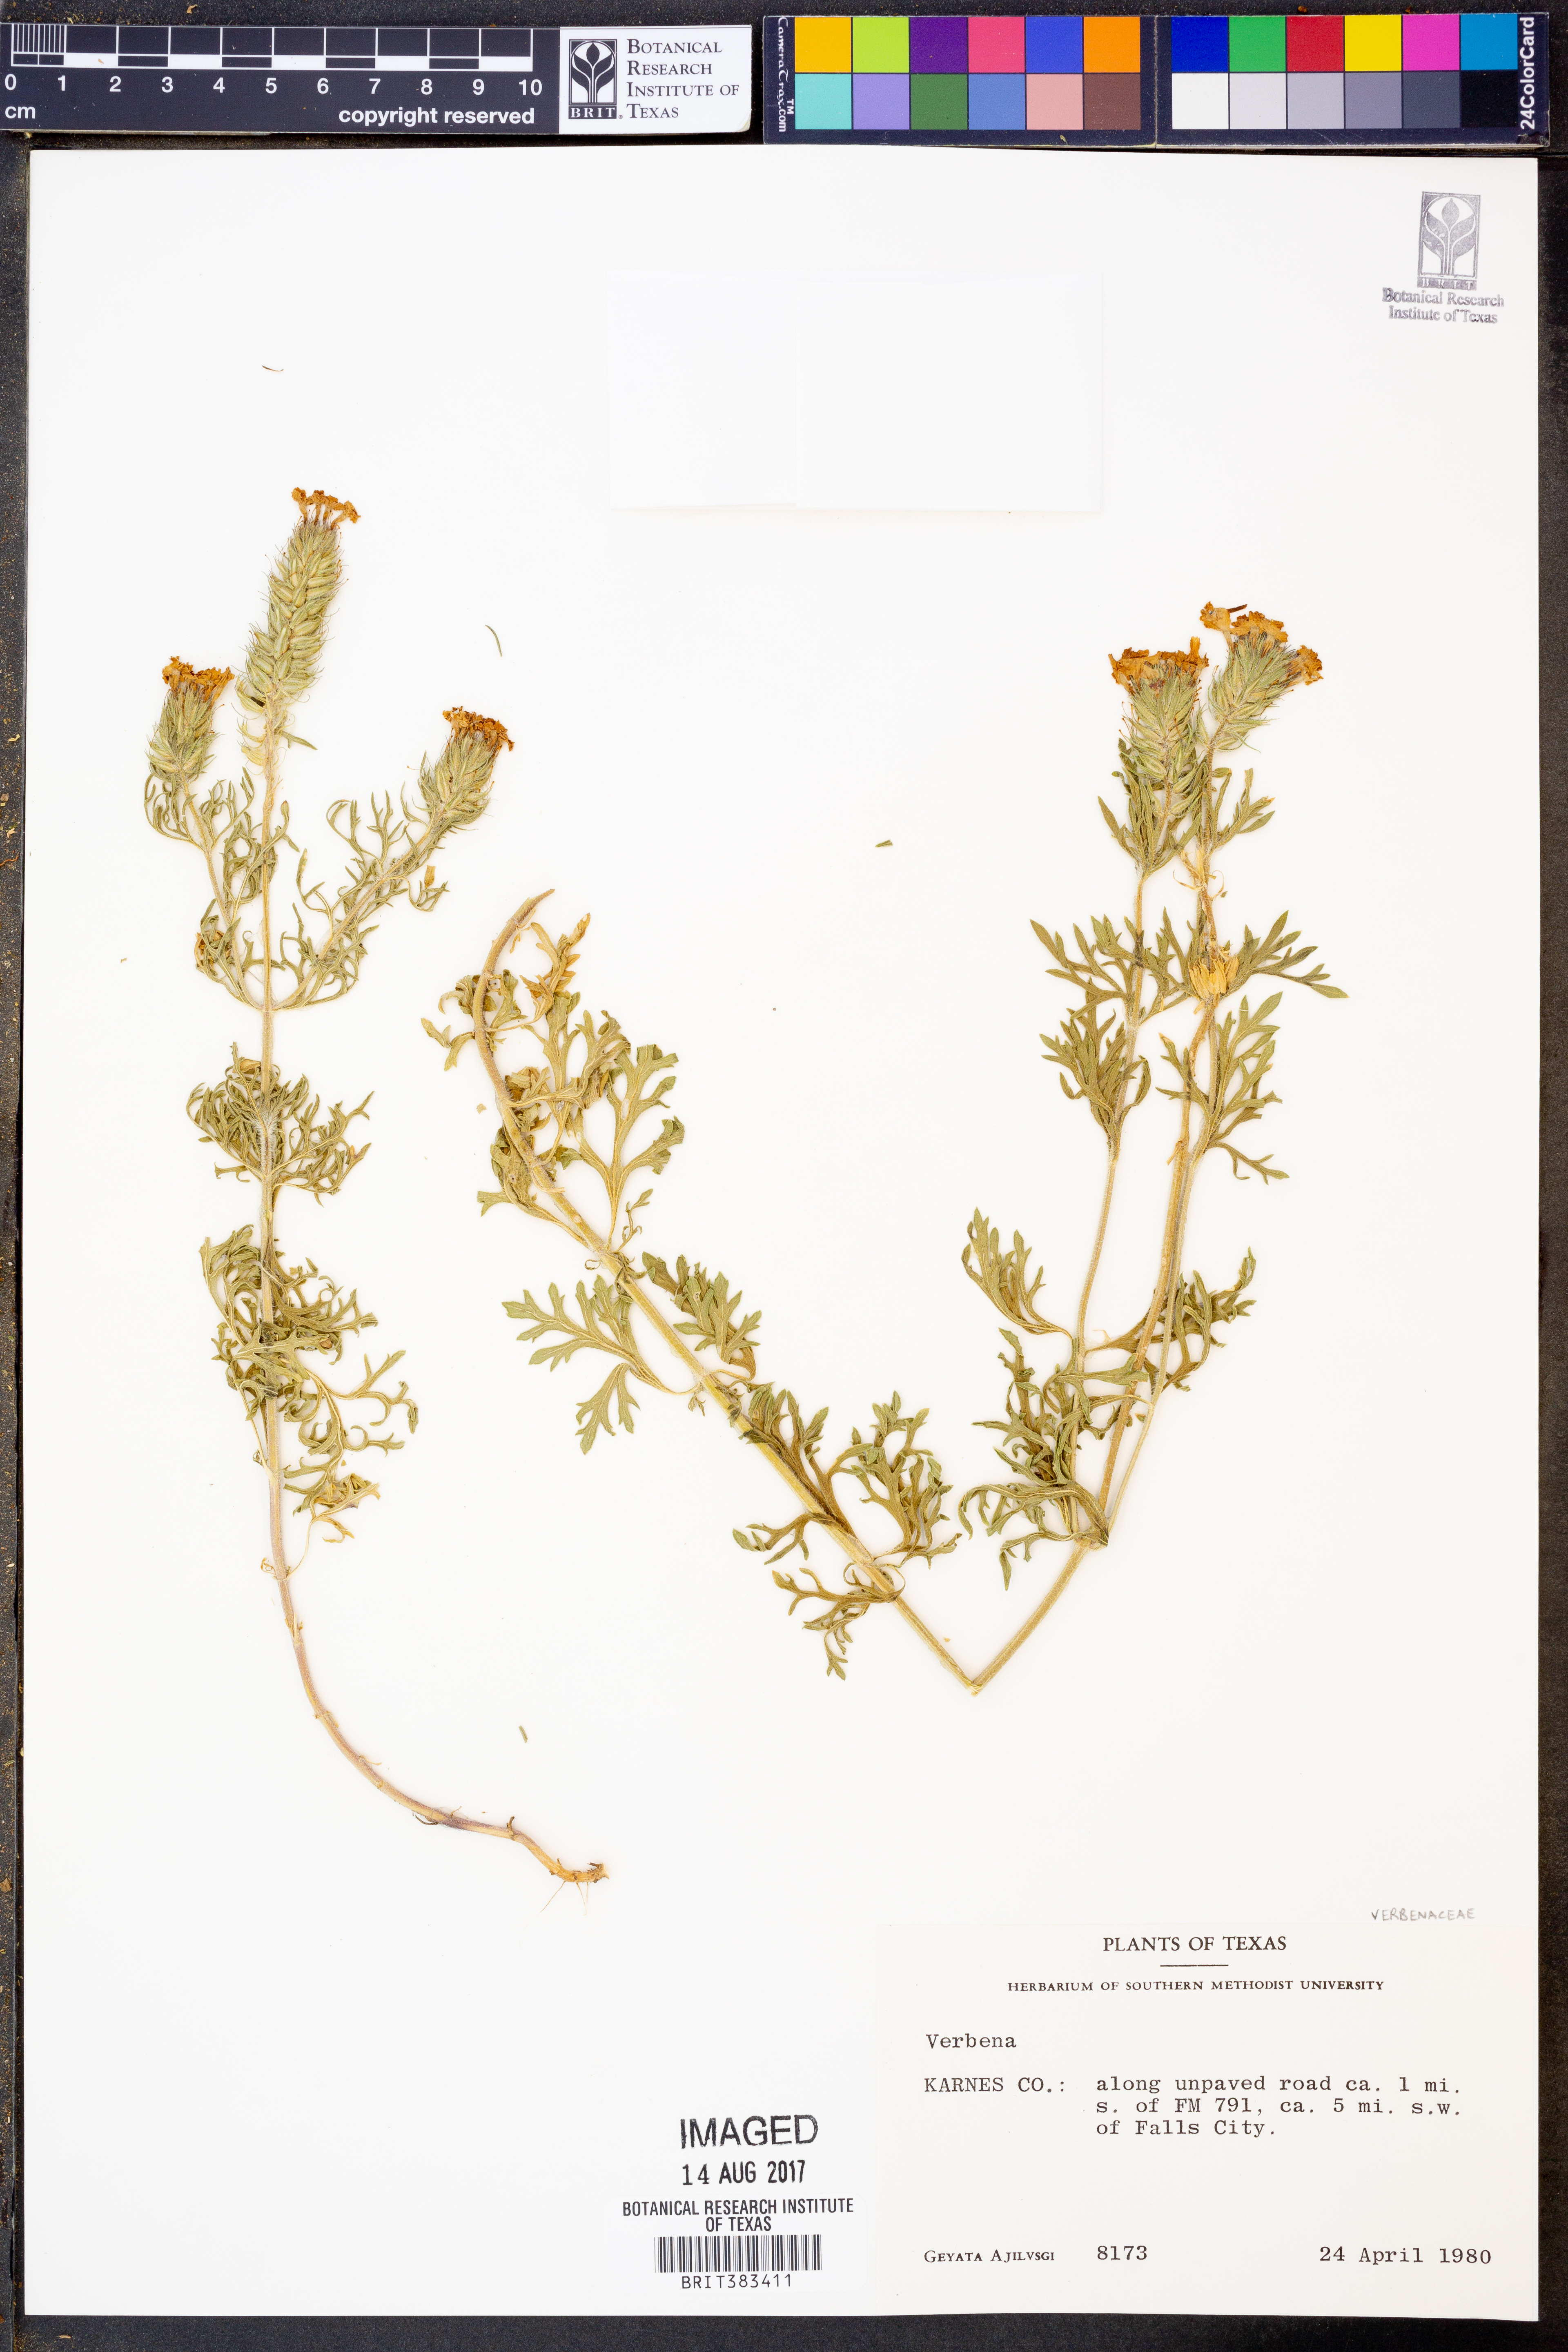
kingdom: Plantae
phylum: Tracheophyta
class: Magnoliopsida
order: Lamiales
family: Verbenaceae
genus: Verbena
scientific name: Verbena
